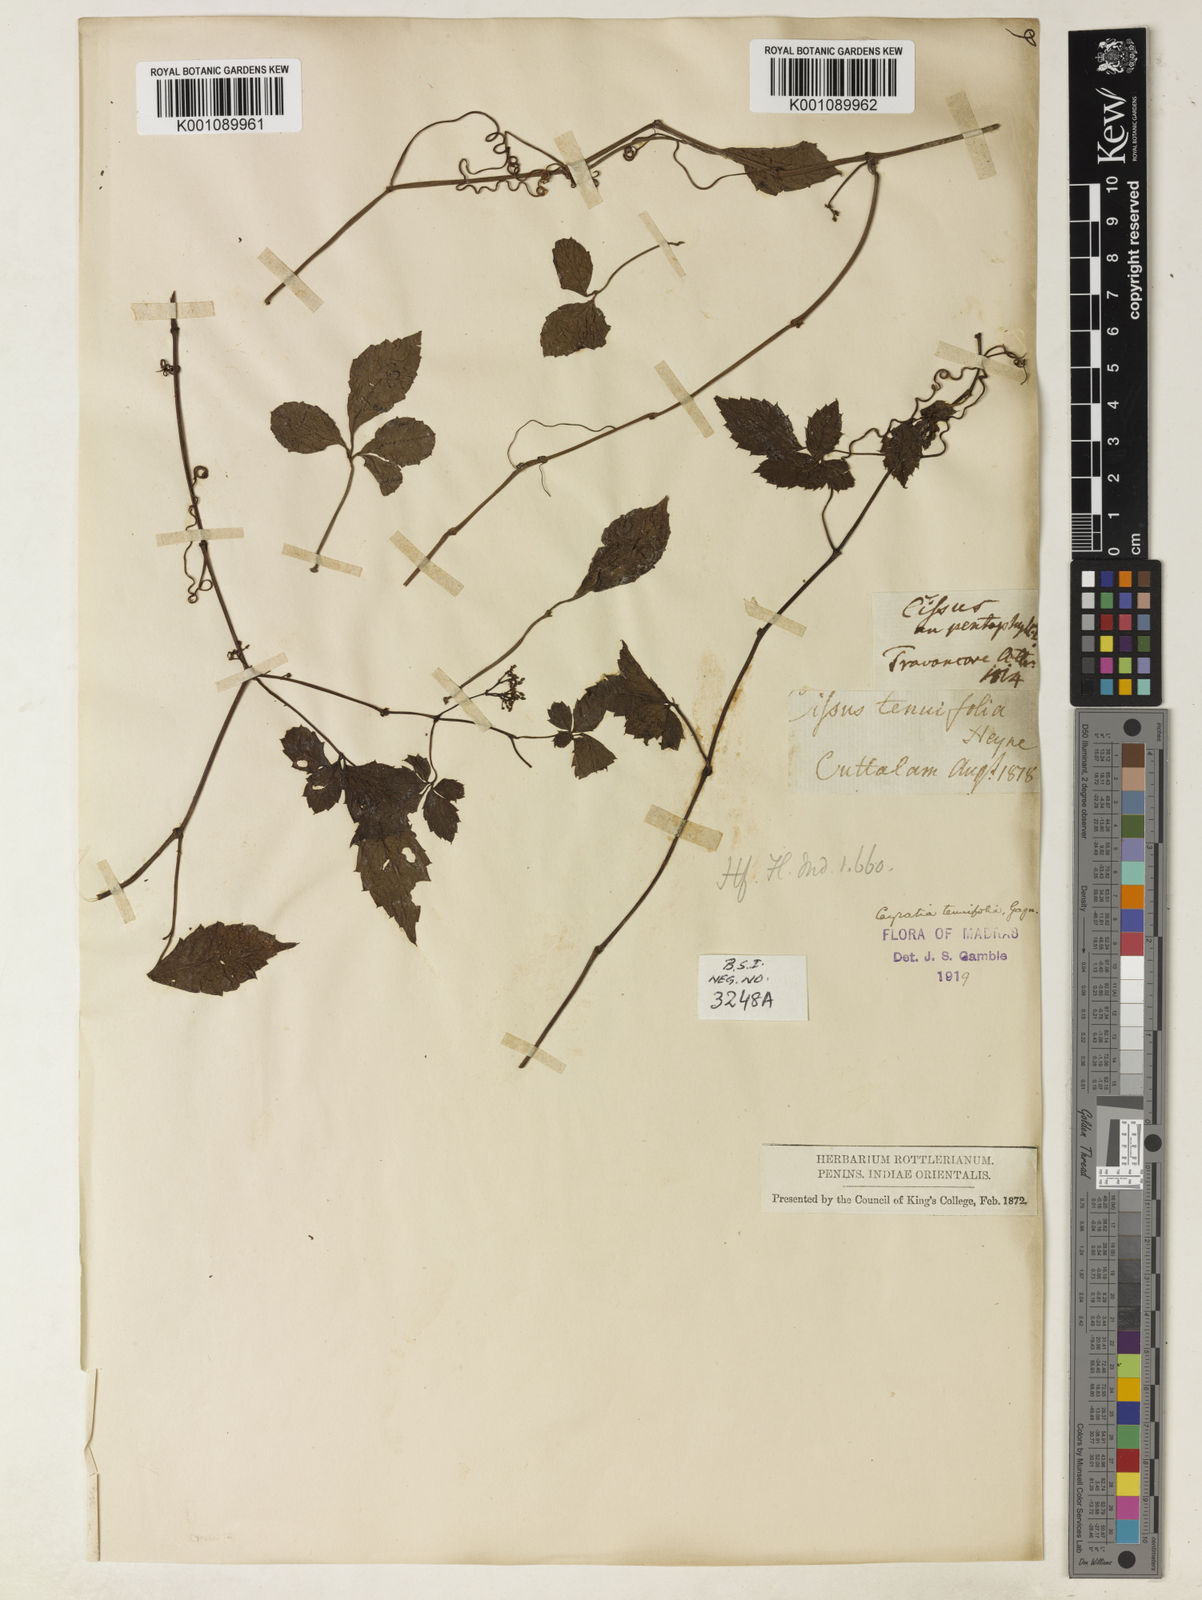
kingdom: Plantae
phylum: Tracheophyta
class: Magnoliopsida
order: Vitales
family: Vitaceae
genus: Causonis
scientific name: Causonis tenuifolia
